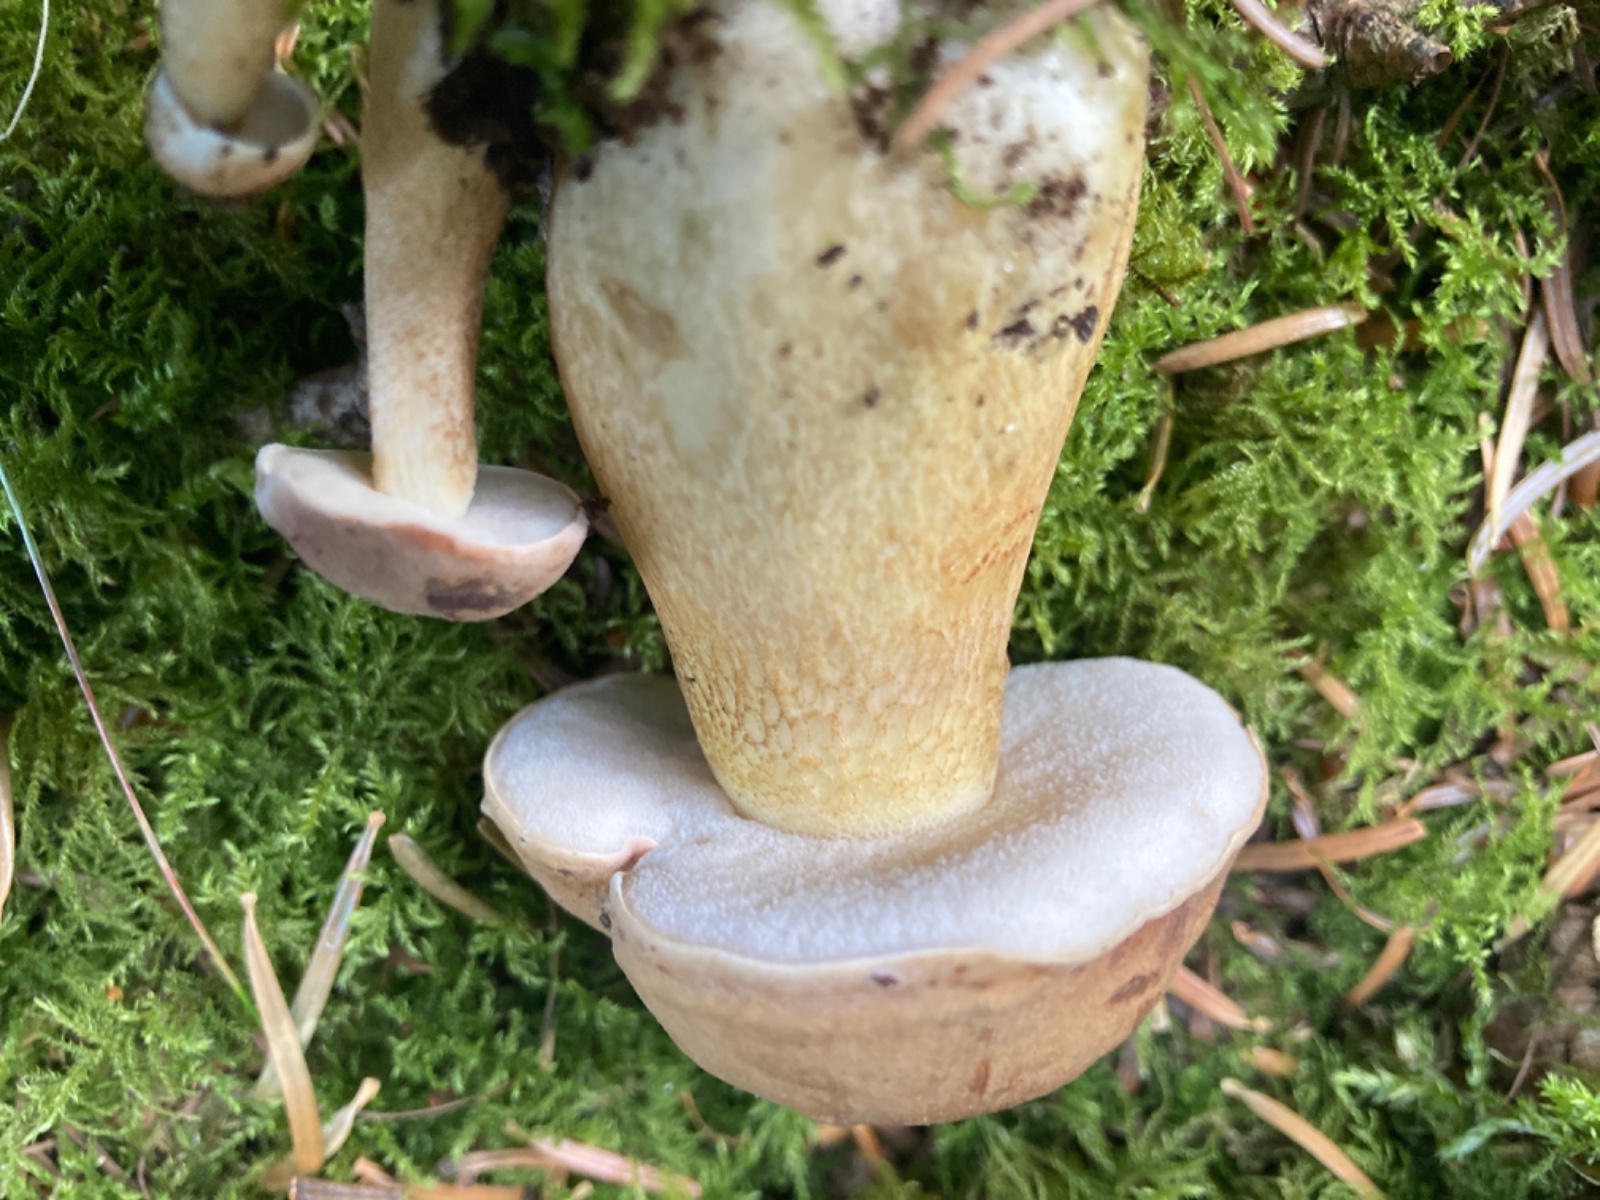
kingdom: Fungi
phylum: Basidiomycota
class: Agaricomycetes
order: Boletales
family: Boletaceae
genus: Tylopilus
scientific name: Tylopilus felleus
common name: galderørhat
